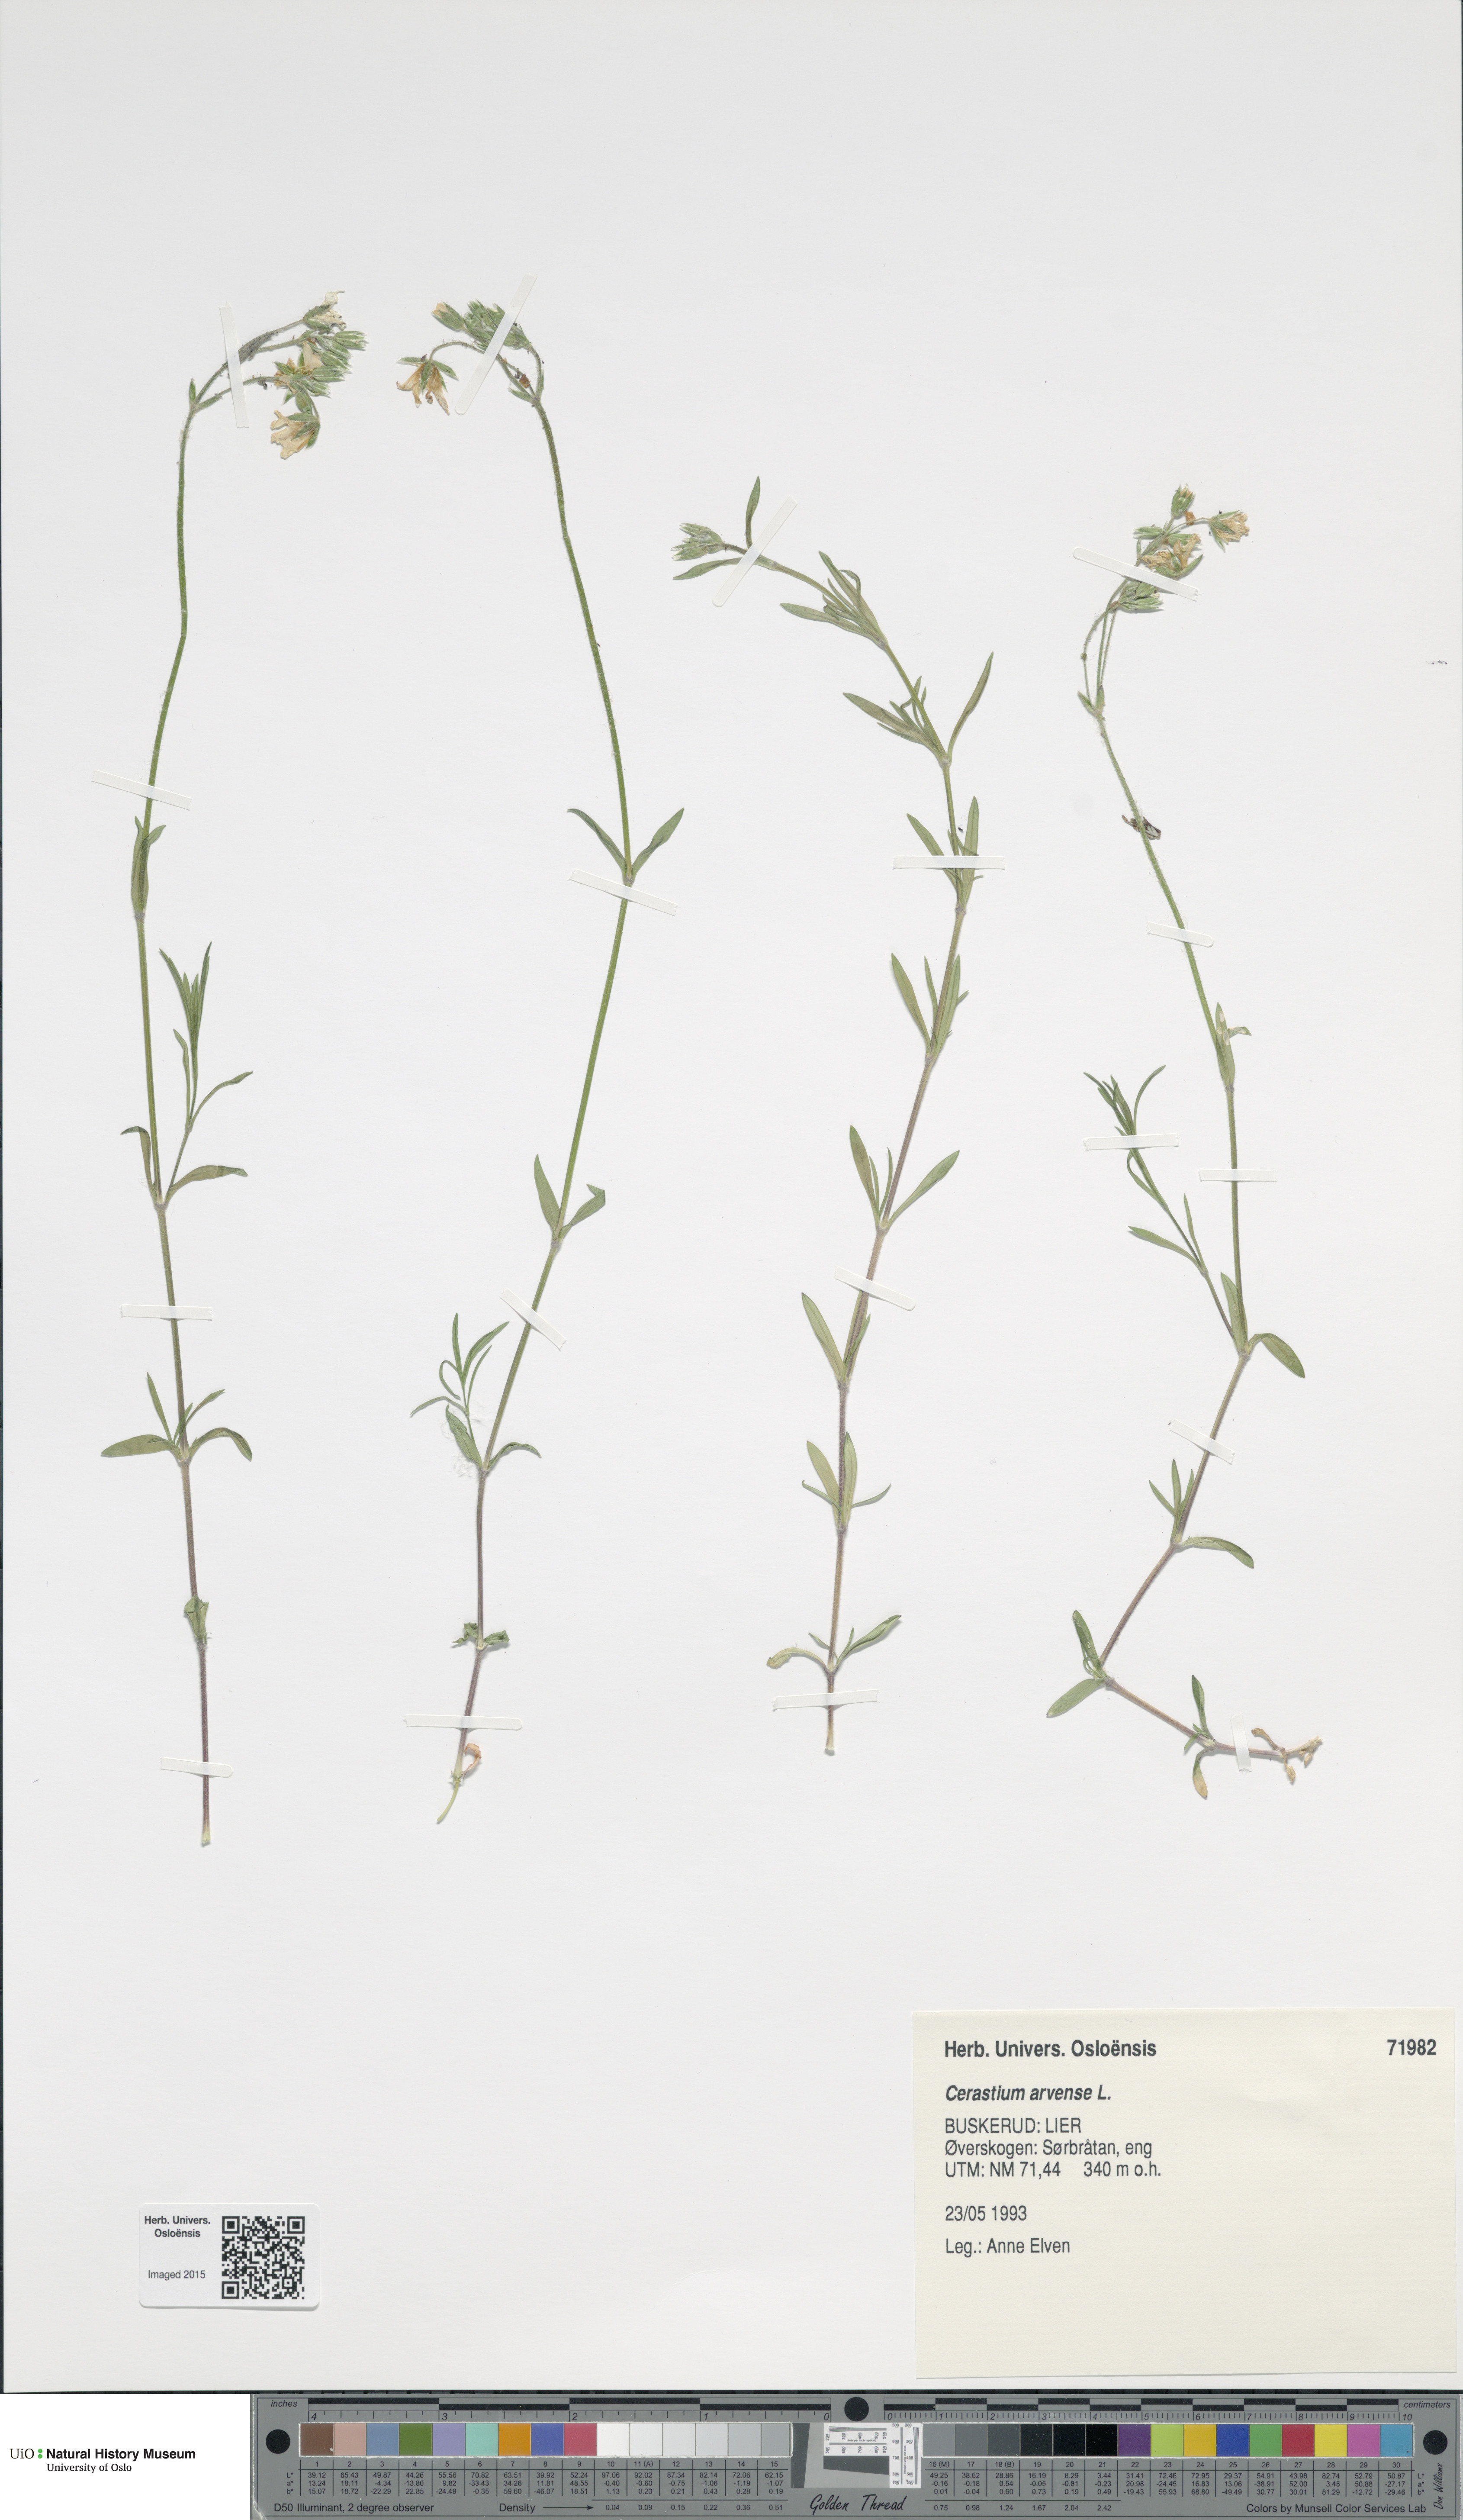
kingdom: Plantae
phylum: Tracheophyta
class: Magnoliopsida
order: Caryophyllales
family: Caryophyllaceae
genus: Cerastium
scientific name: Cerastium arvense
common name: Field mouse-ear
